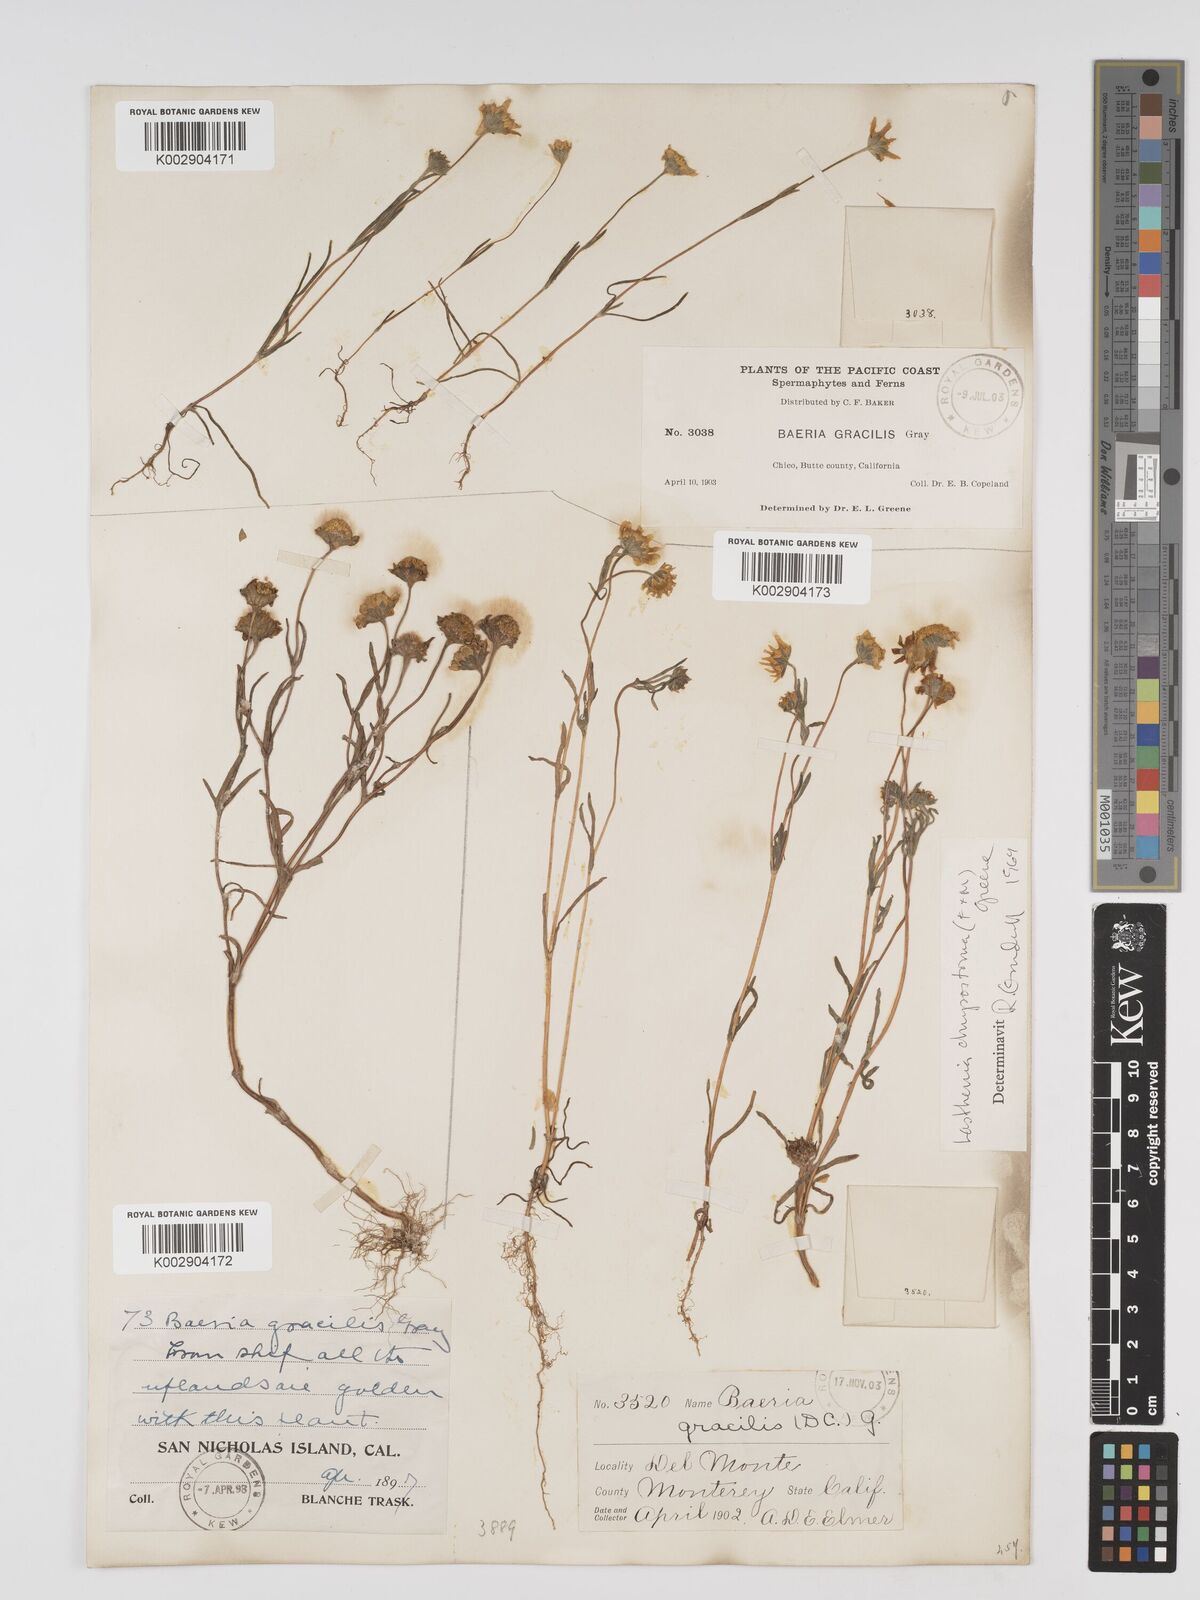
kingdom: Plantae
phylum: Tracheophyta
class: Magnoliopsida
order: Asterales
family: Asteraceae
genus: Lasthenia
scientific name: Lasthenia californica
